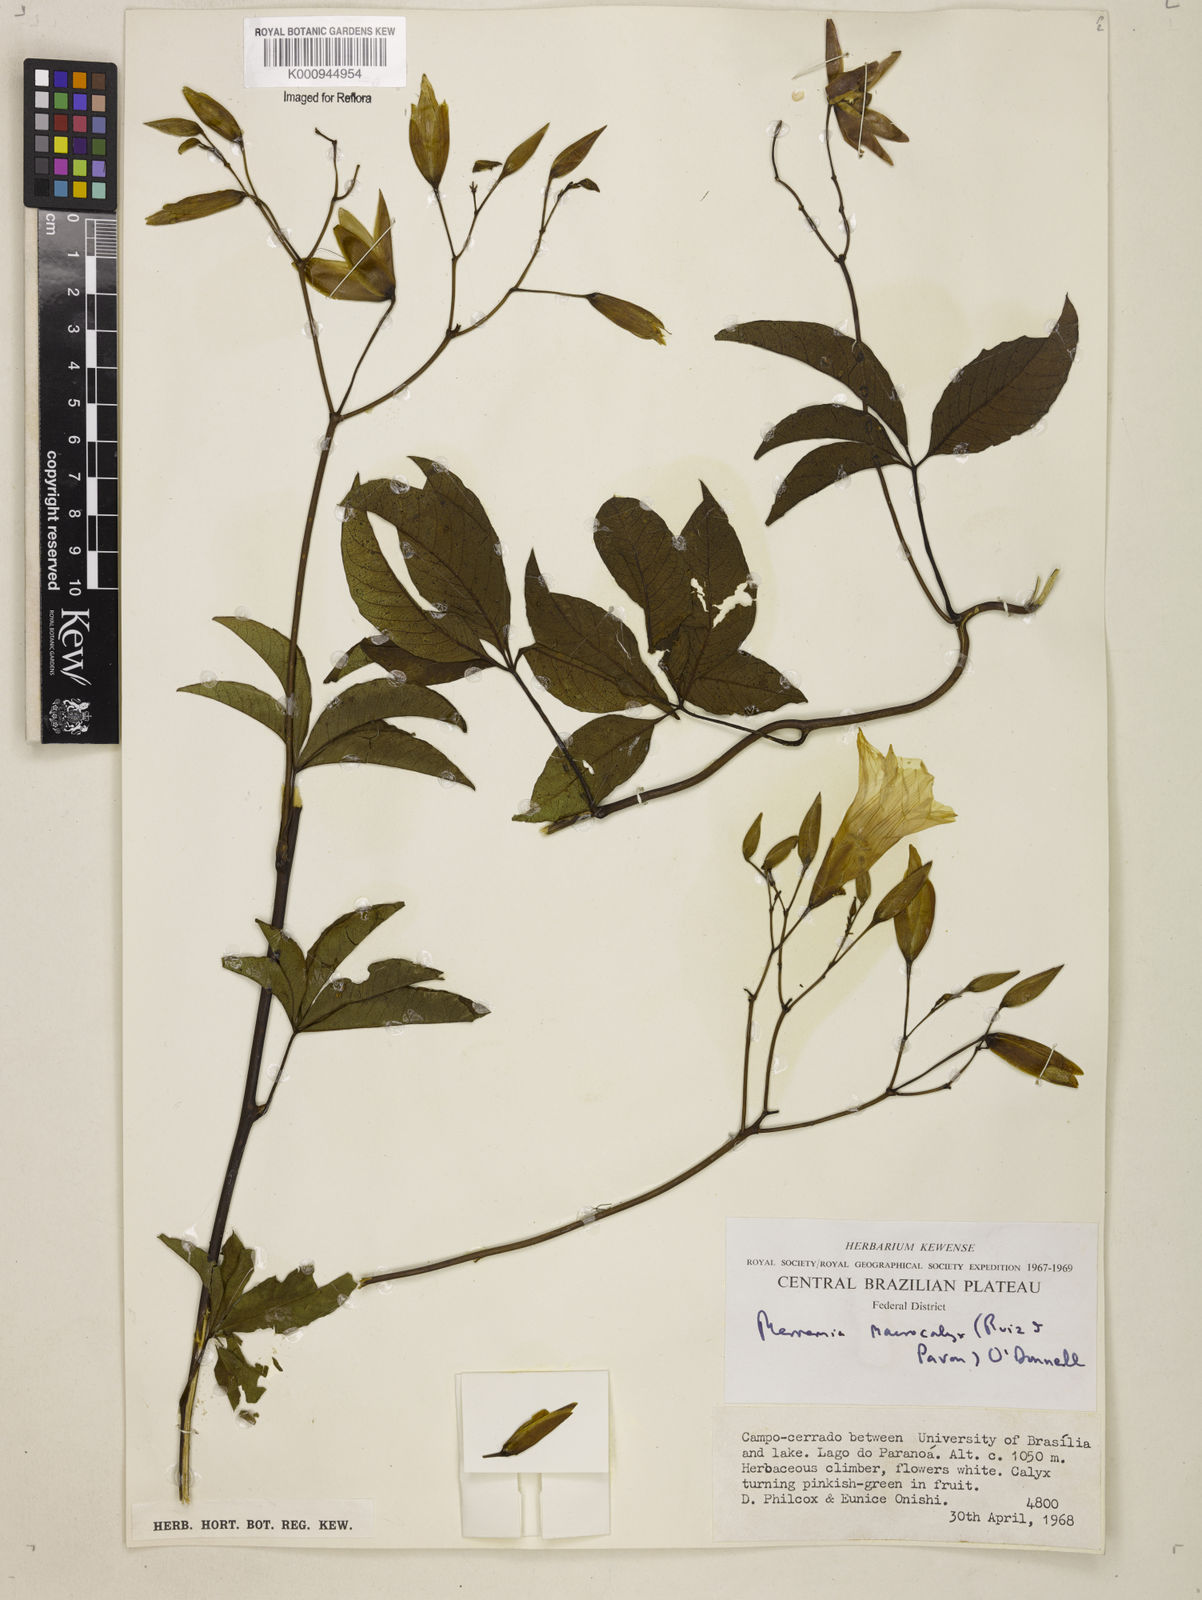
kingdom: Plantae
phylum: Tracheophyta
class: Magnoliopsida
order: Solanales
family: Convolvulaceae
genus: Distimake
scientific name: Distimake macrocalyx
